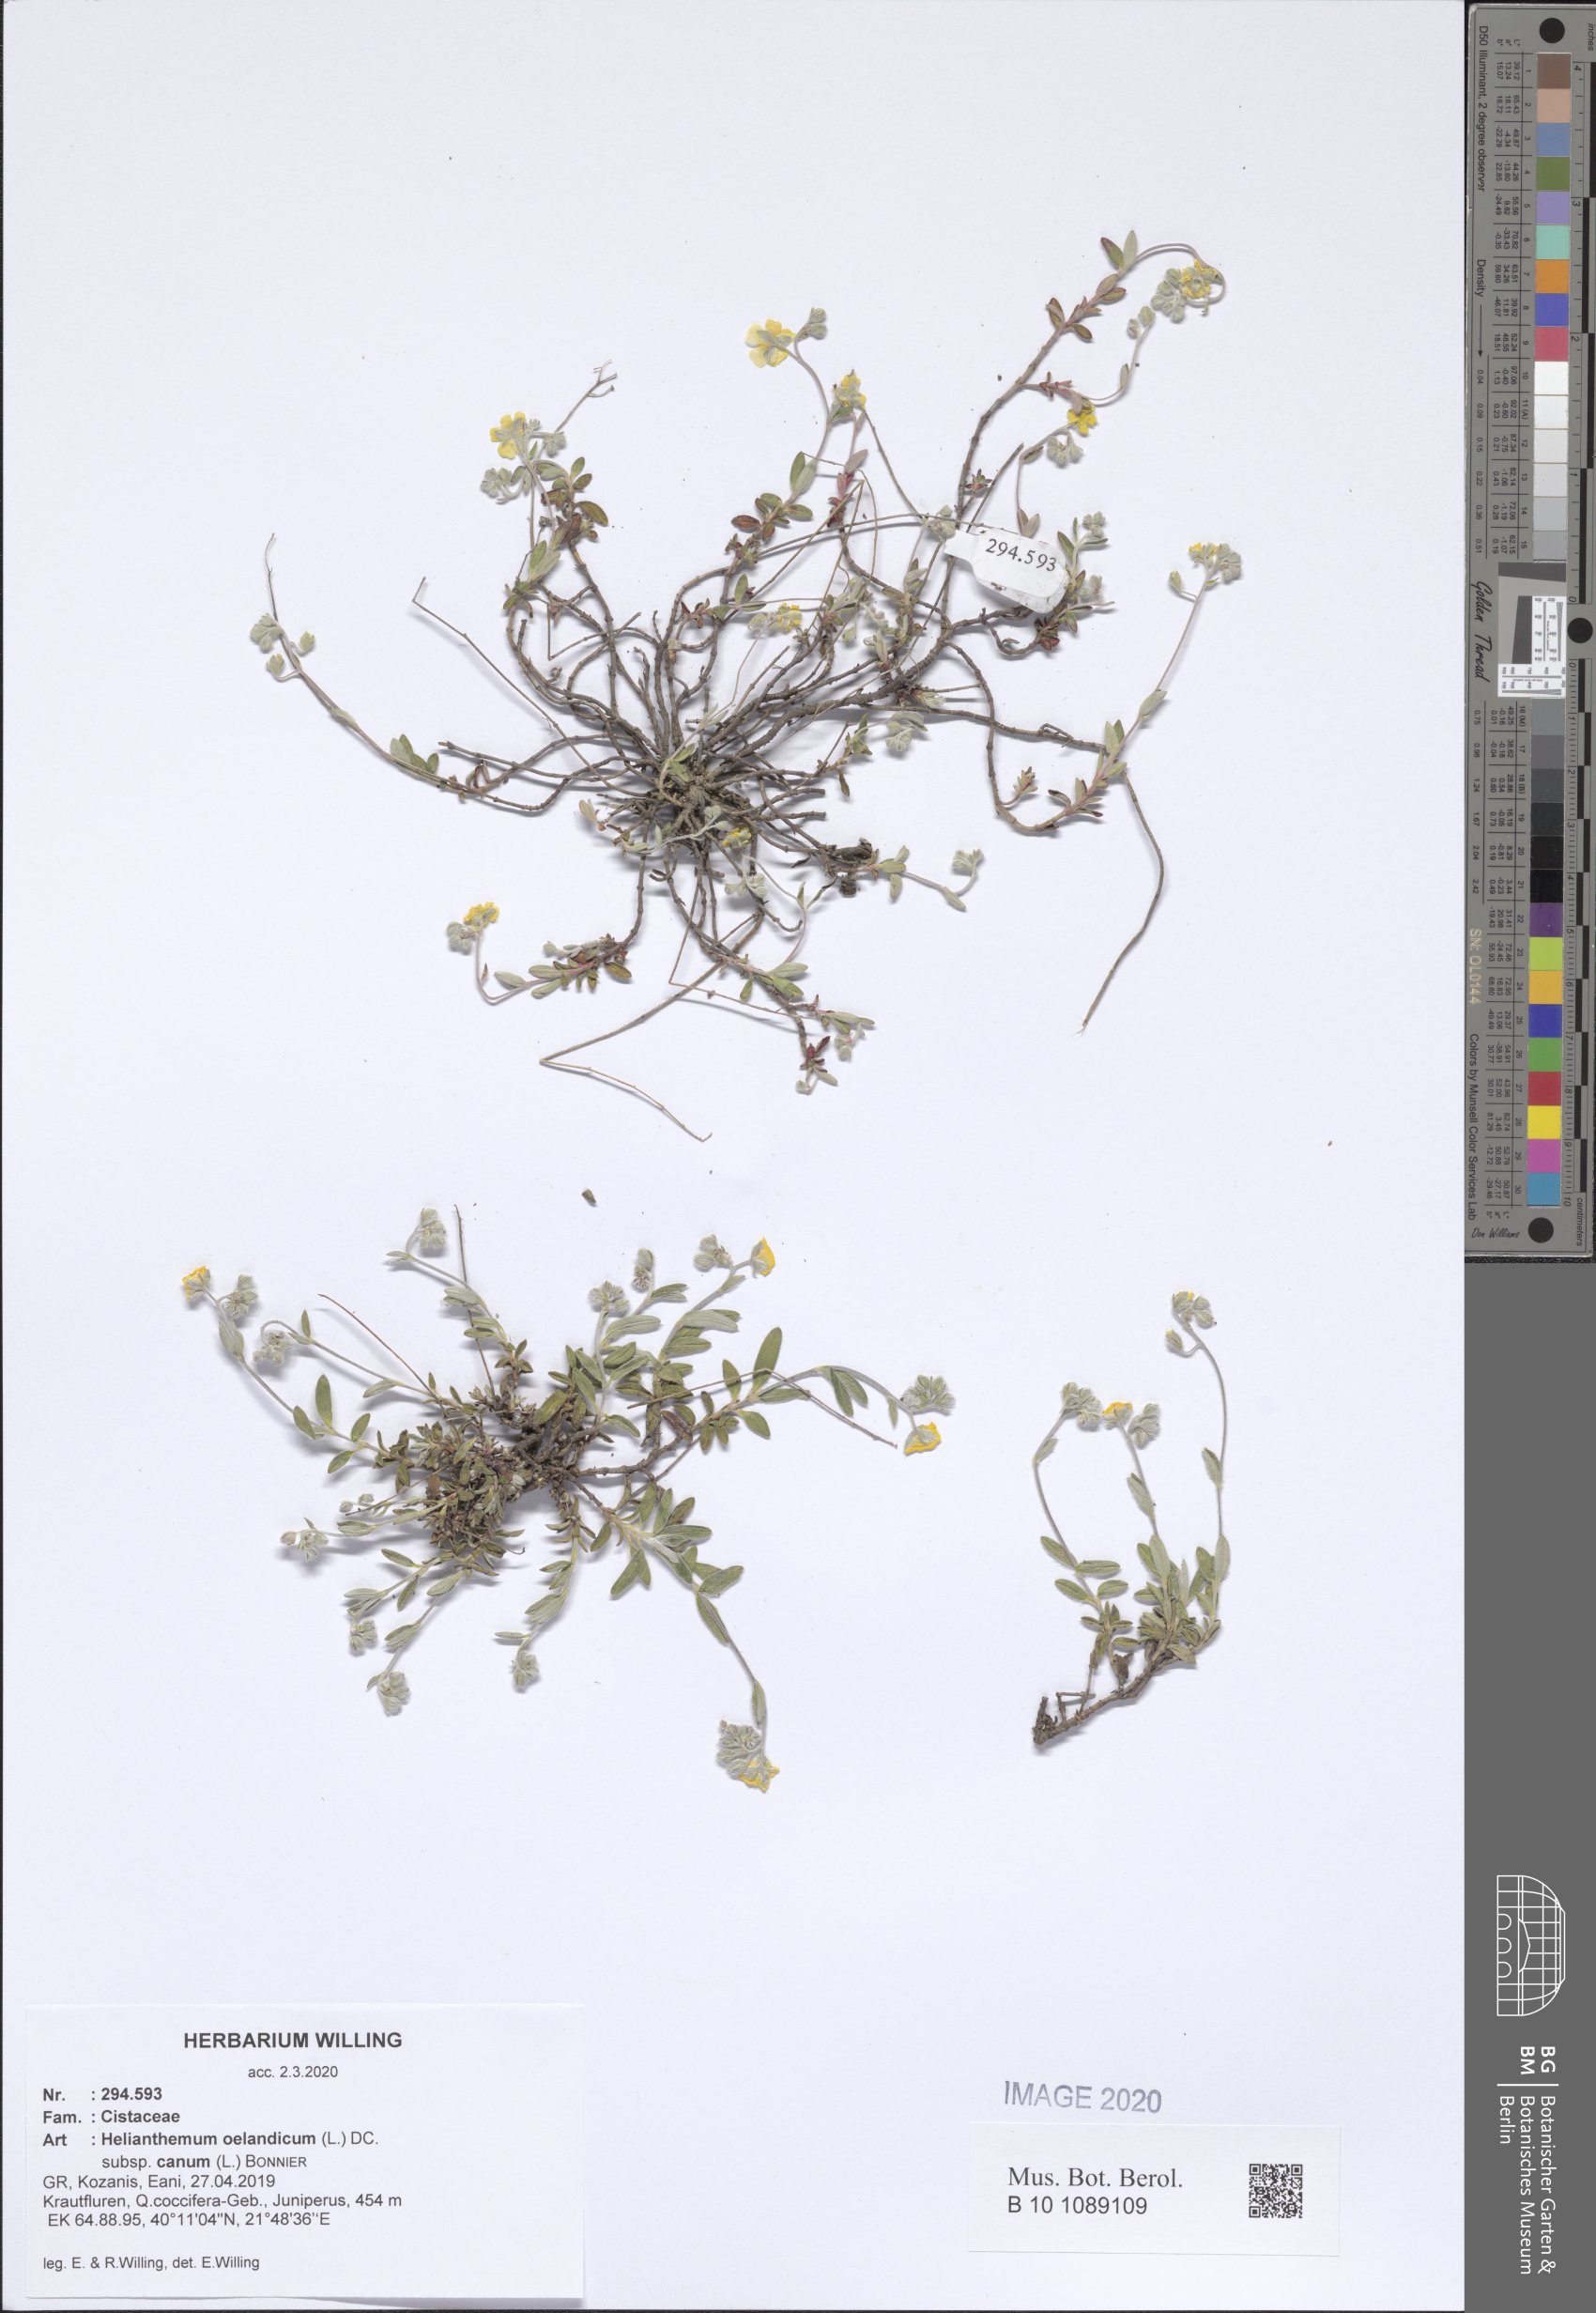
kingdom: Plantae
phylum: Tracheophyta
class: Magnoliopsida
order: Malvales
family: Cistaceae
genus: Helianthemum
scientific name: Helianthemum canum
